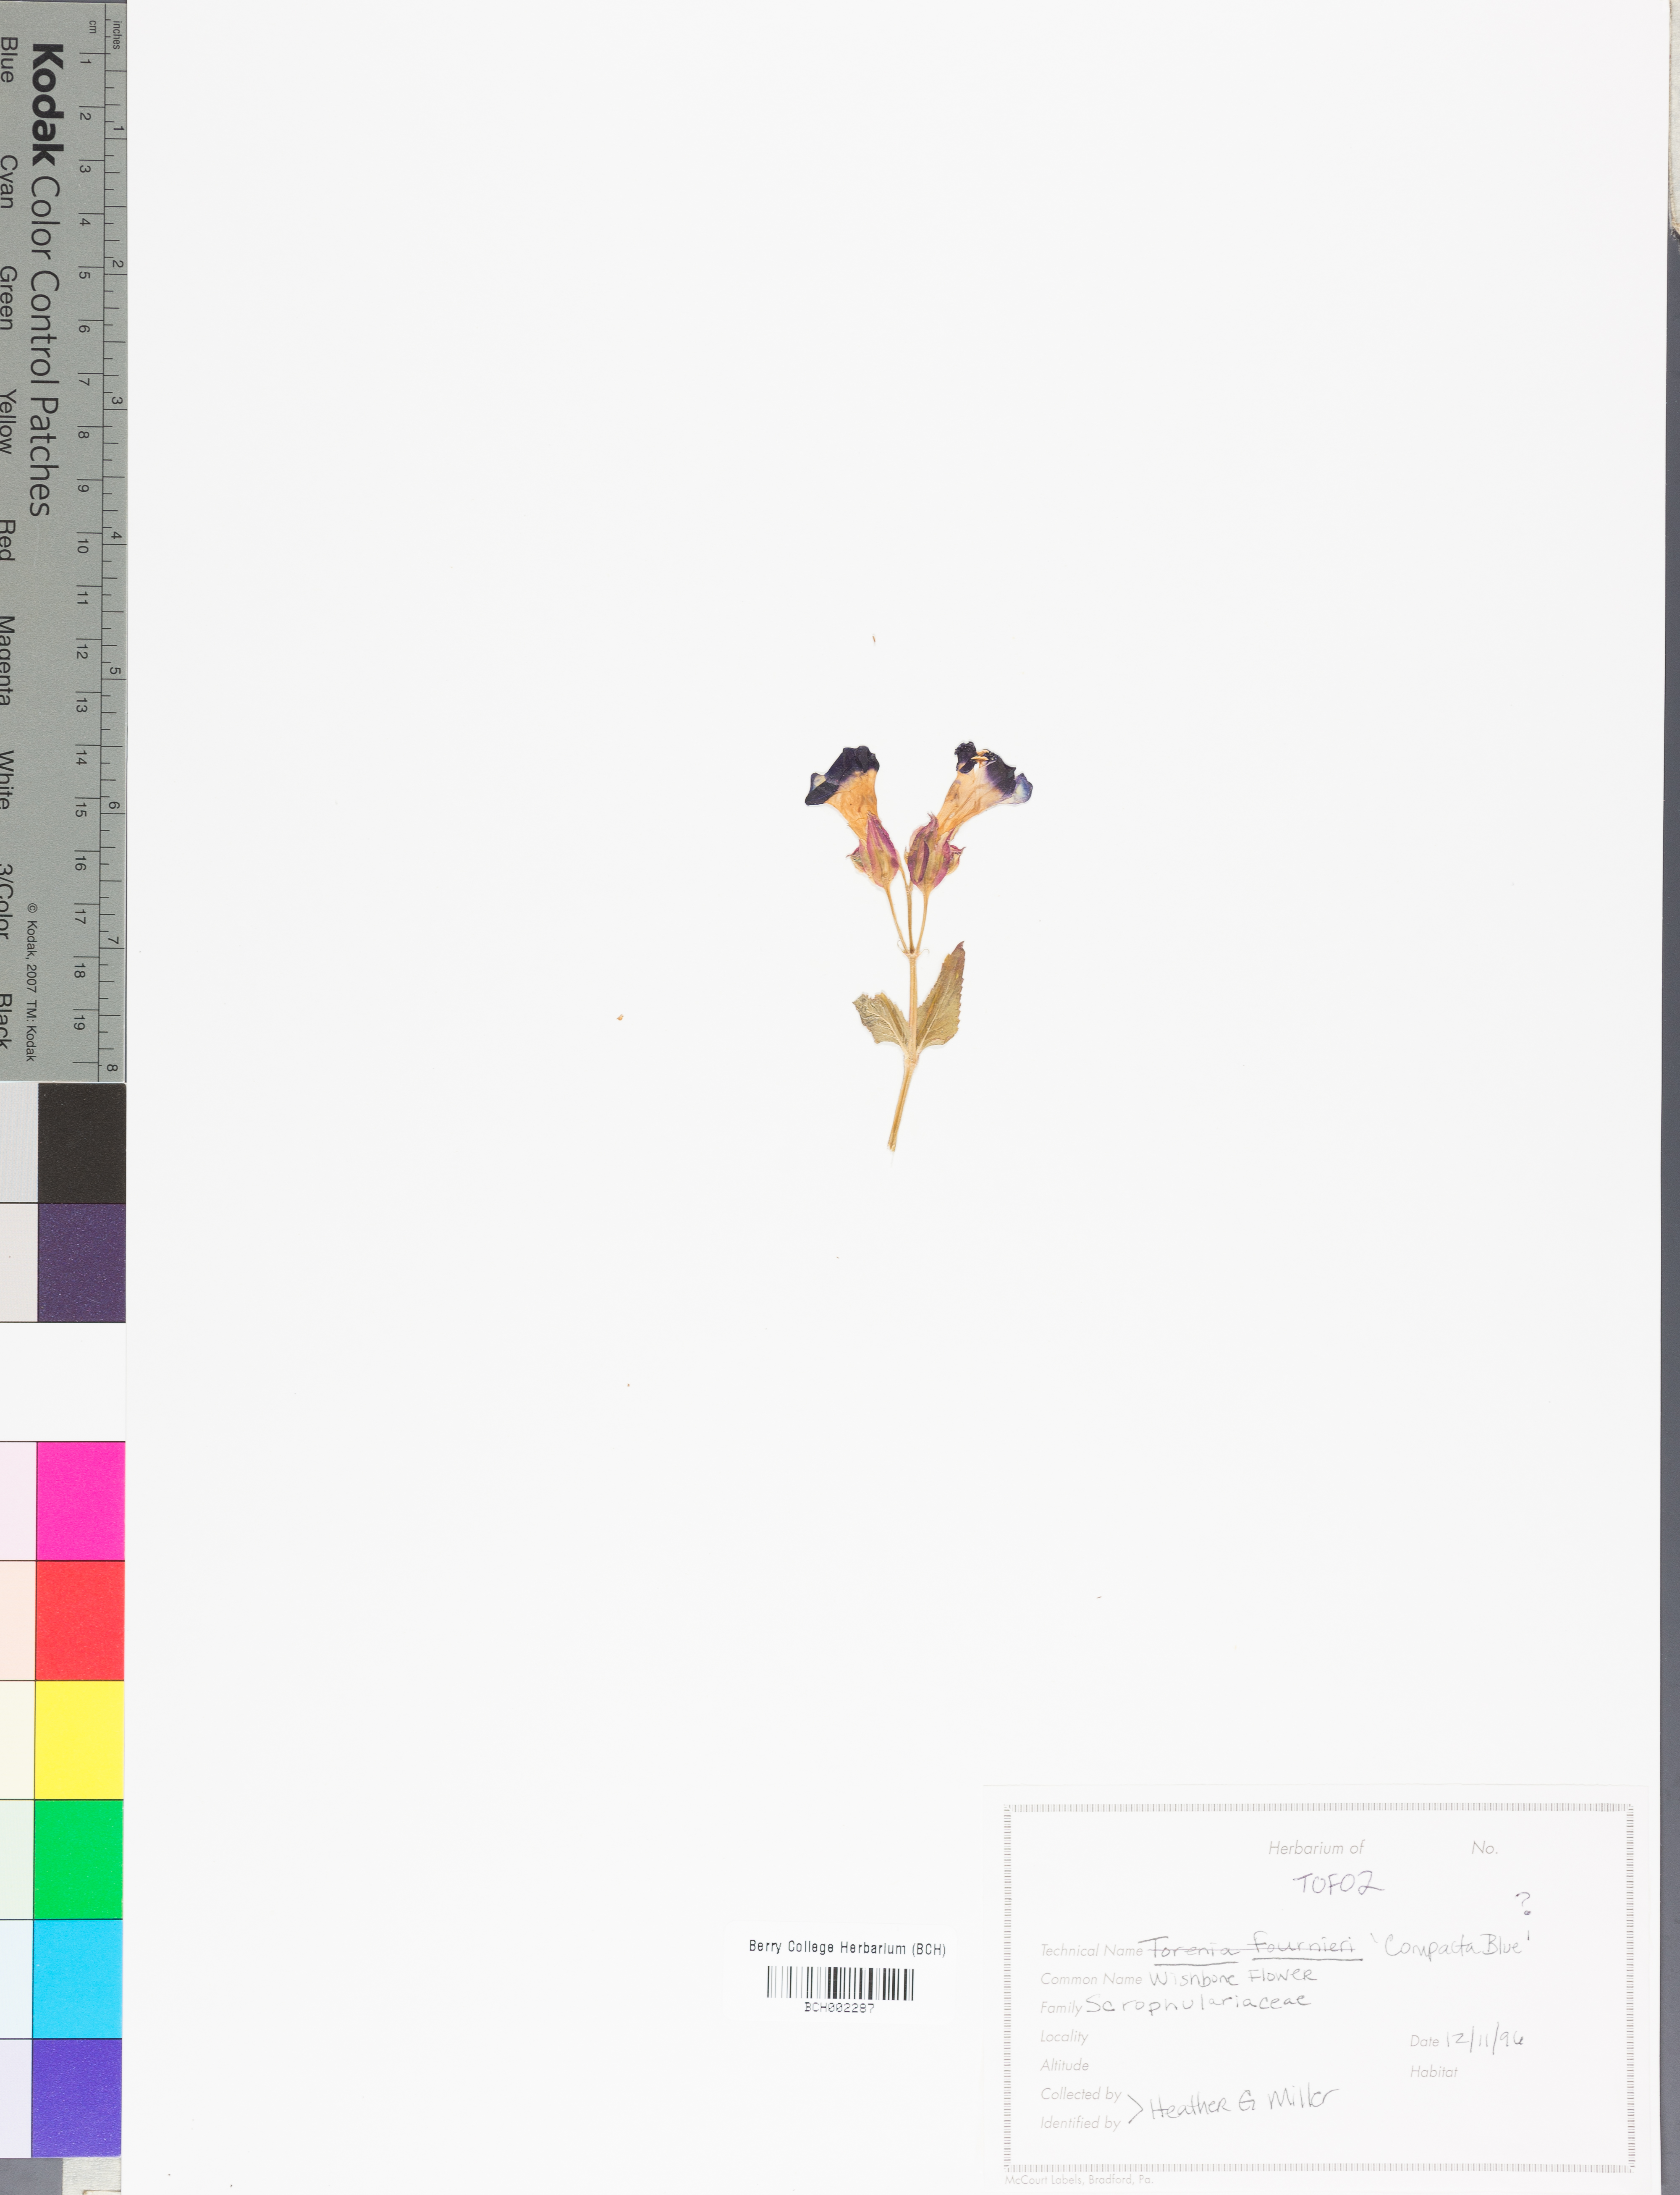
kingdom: Plantae
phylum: Tracheophyta
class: Magnoliopsida
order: Lamiales
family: Linderniaceae
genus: Torenia
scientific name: Torenia fournieri
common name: Bluewings
